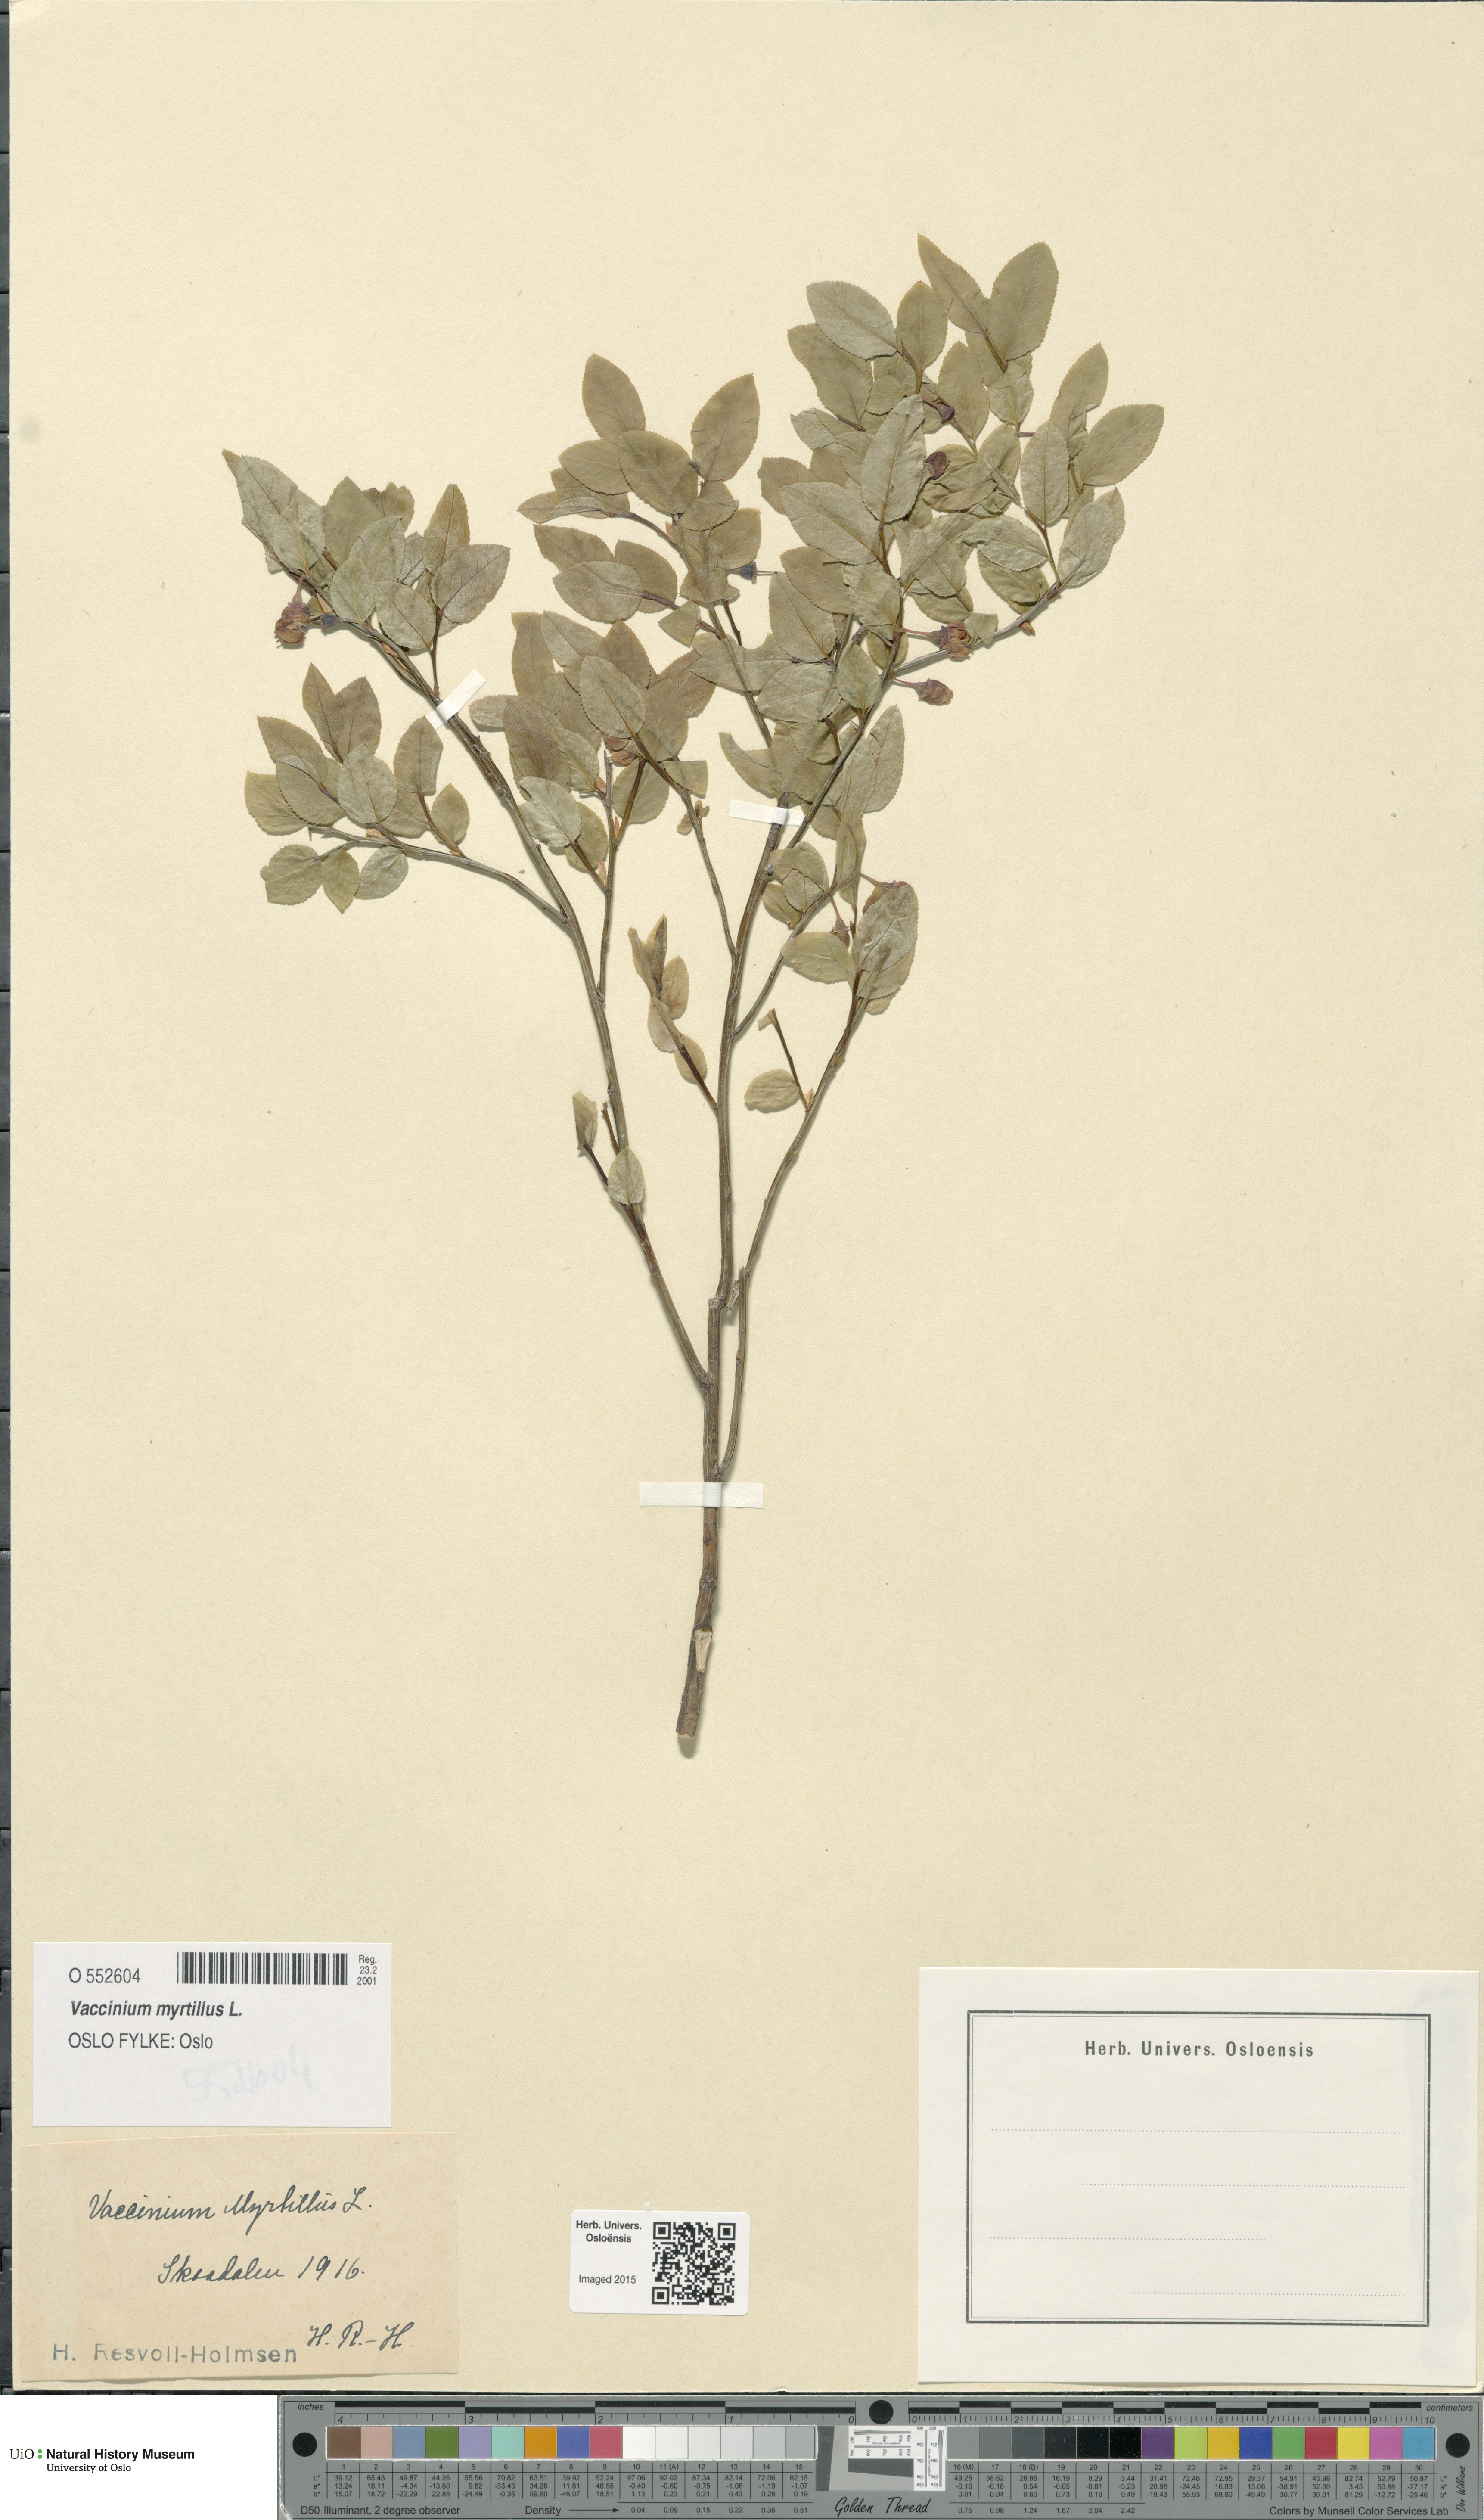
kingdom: Plantae
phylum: Tracheophyta
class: Magnoliopsida
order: Ericales
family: Ericaceae
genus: Vaccinium
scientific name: Vaccinium myrtillus
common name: Bilberry
